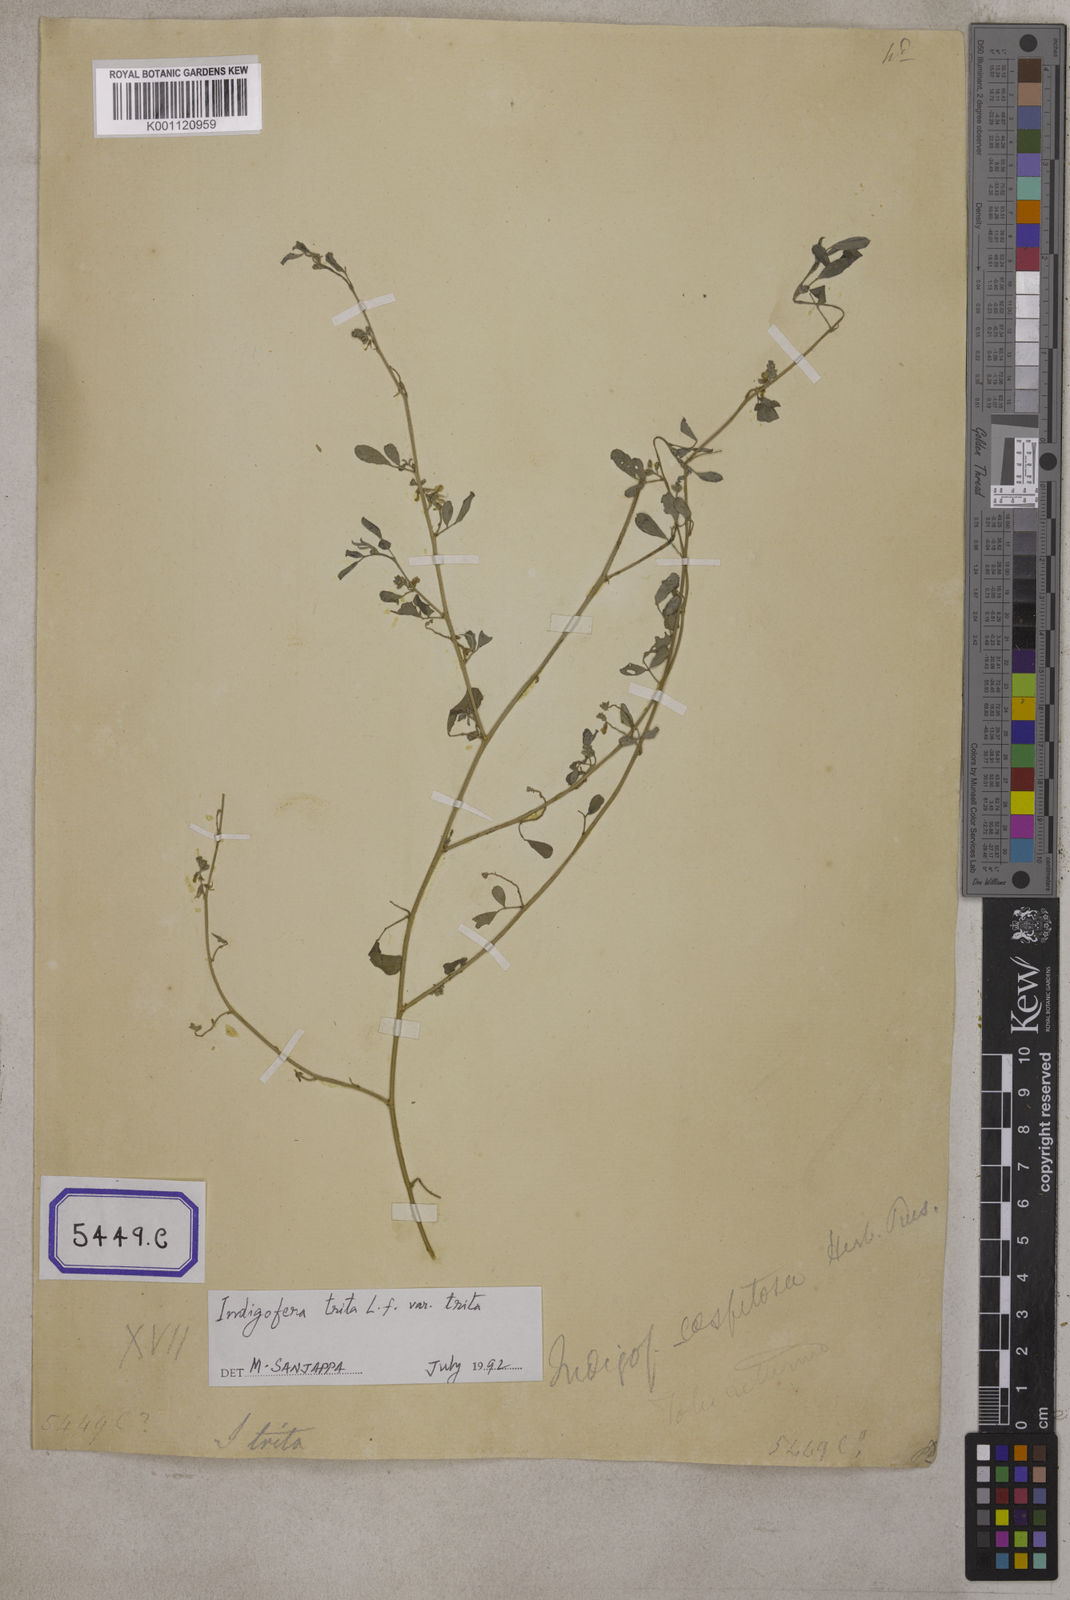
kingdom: Plantae
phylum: Tracheophyta
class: Magnoliopsida
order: Fabales
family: Fabaceae
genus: Indigofera
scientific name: Indigofera trita
